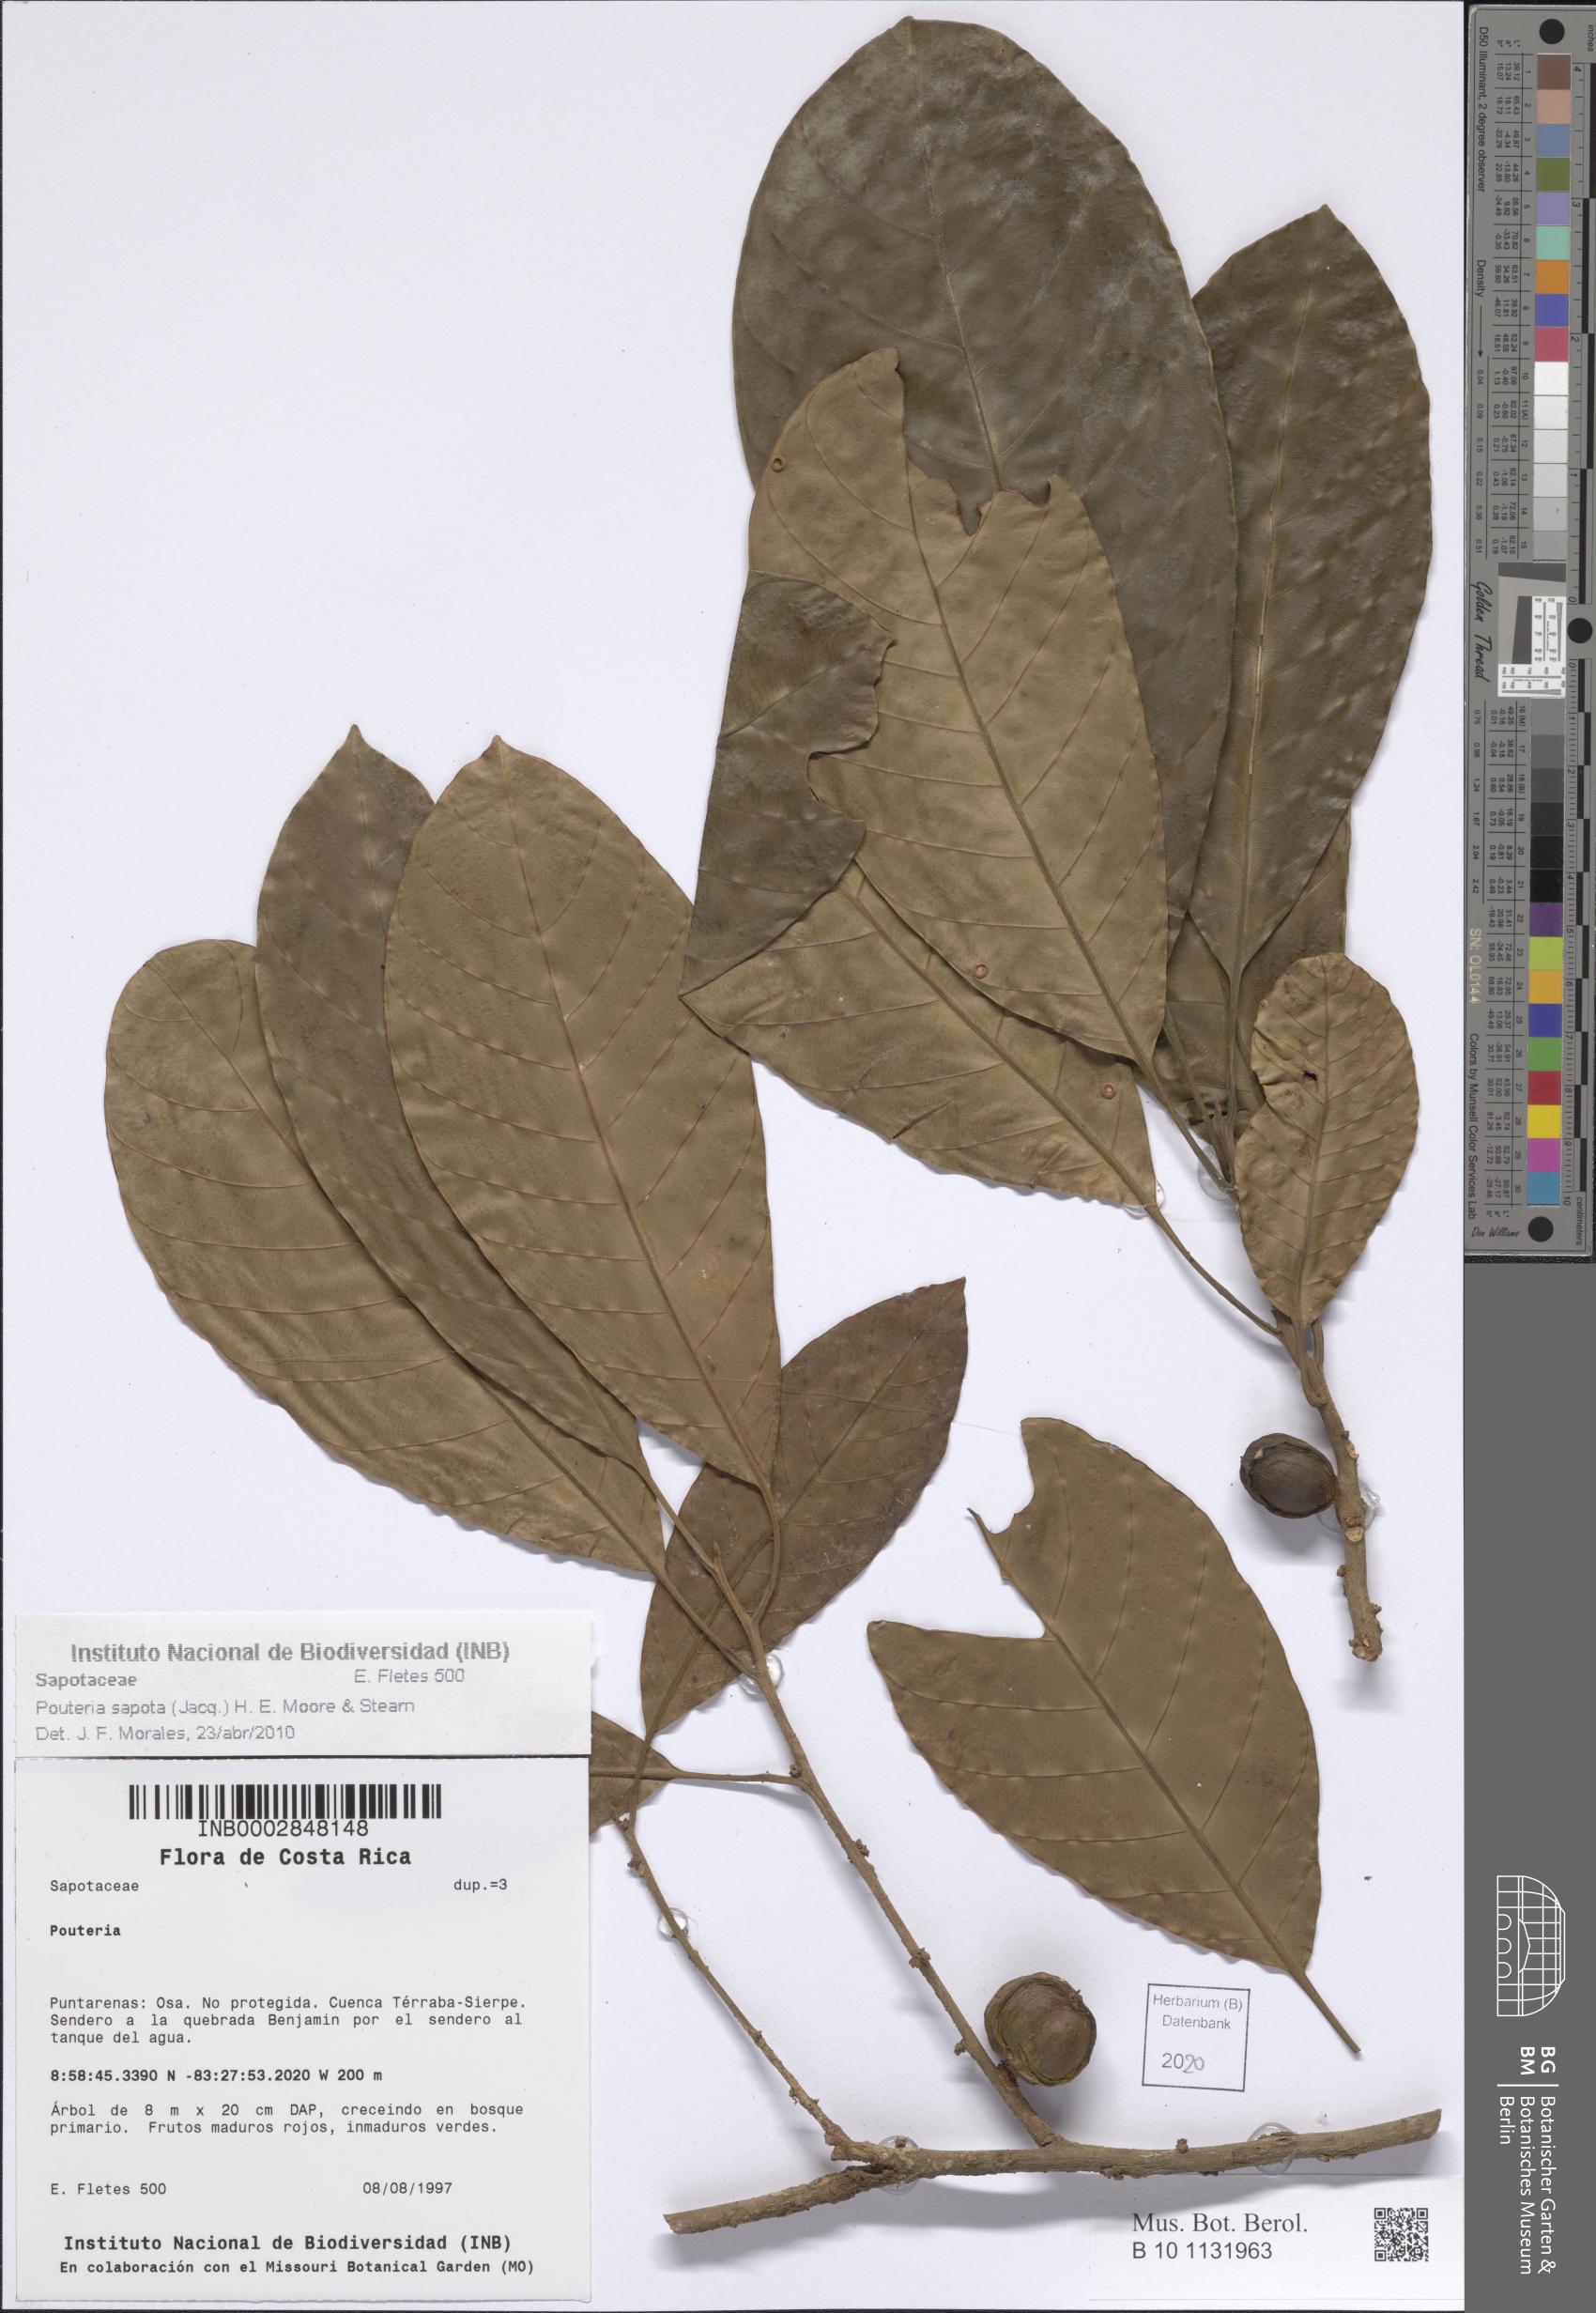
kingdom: Plantae
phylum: Tracheophyta
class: Magnoliopsida
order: Ericales
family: Sapotaceae
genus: Pouteria
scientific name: Pouteria sapota
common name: Mamey
